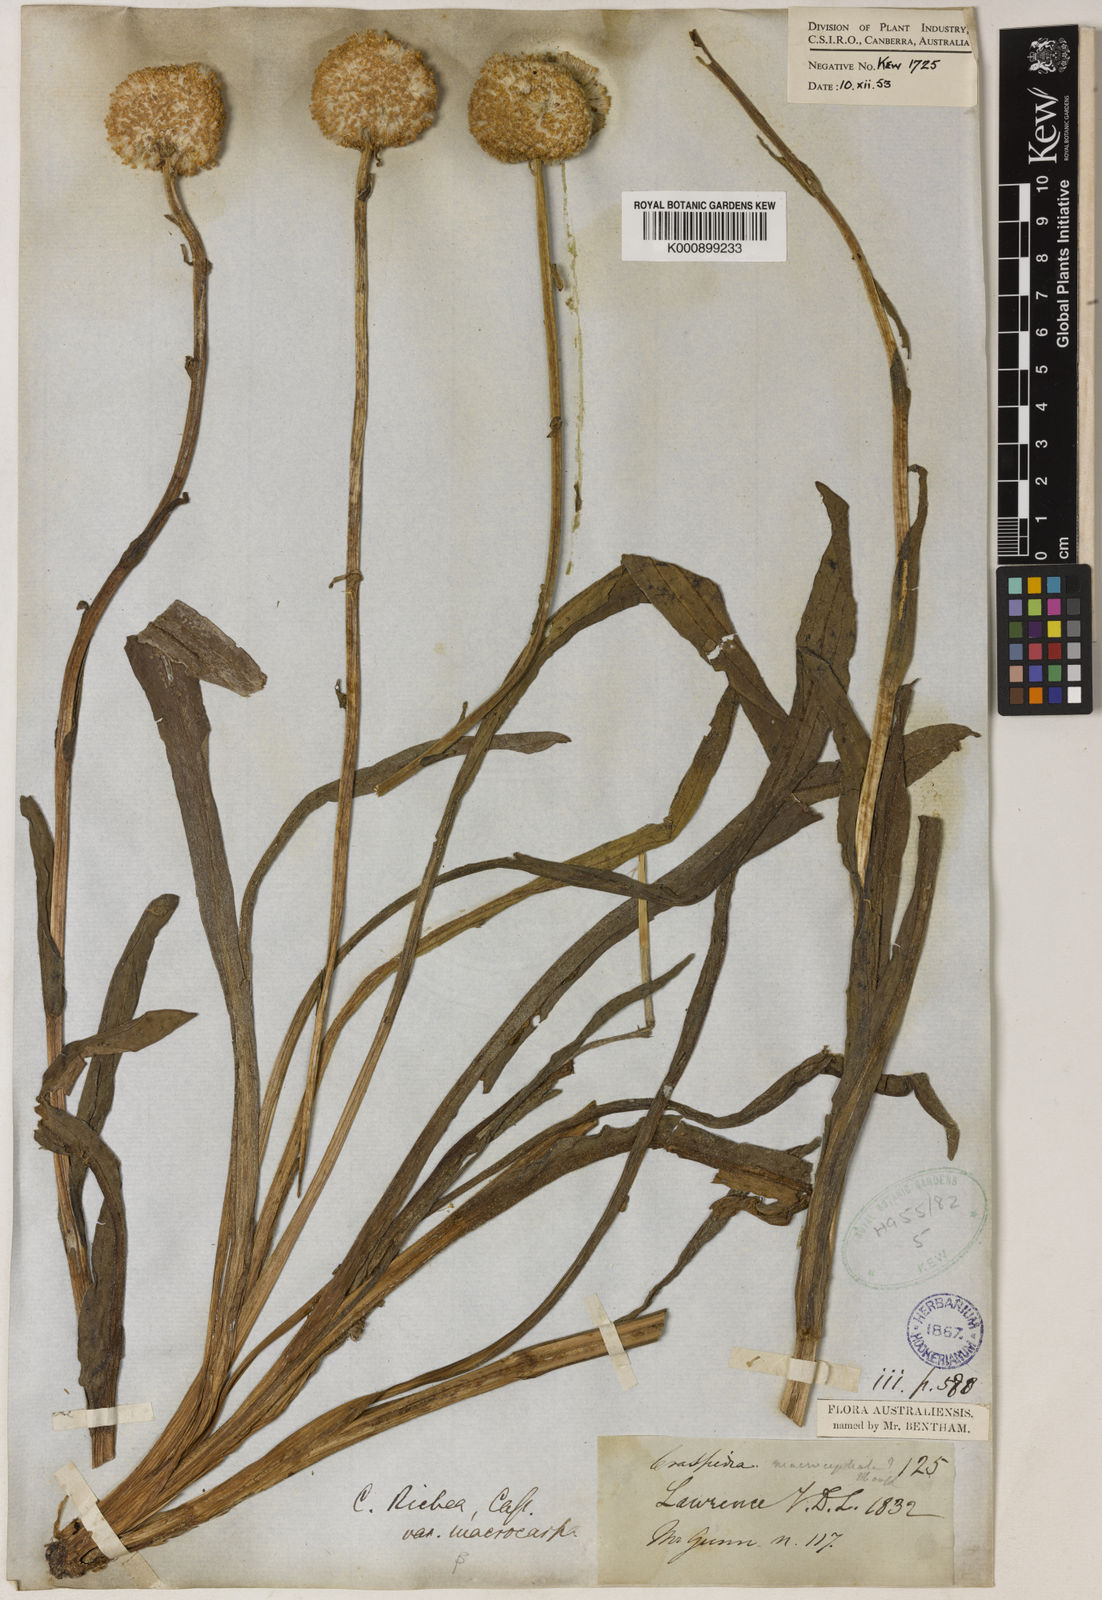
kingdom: Plantae
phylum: Tracheophyta
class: Magnoliopsida
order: Asterales
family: Asteraceae
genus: Craspedia
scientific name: Craspedia glauca
